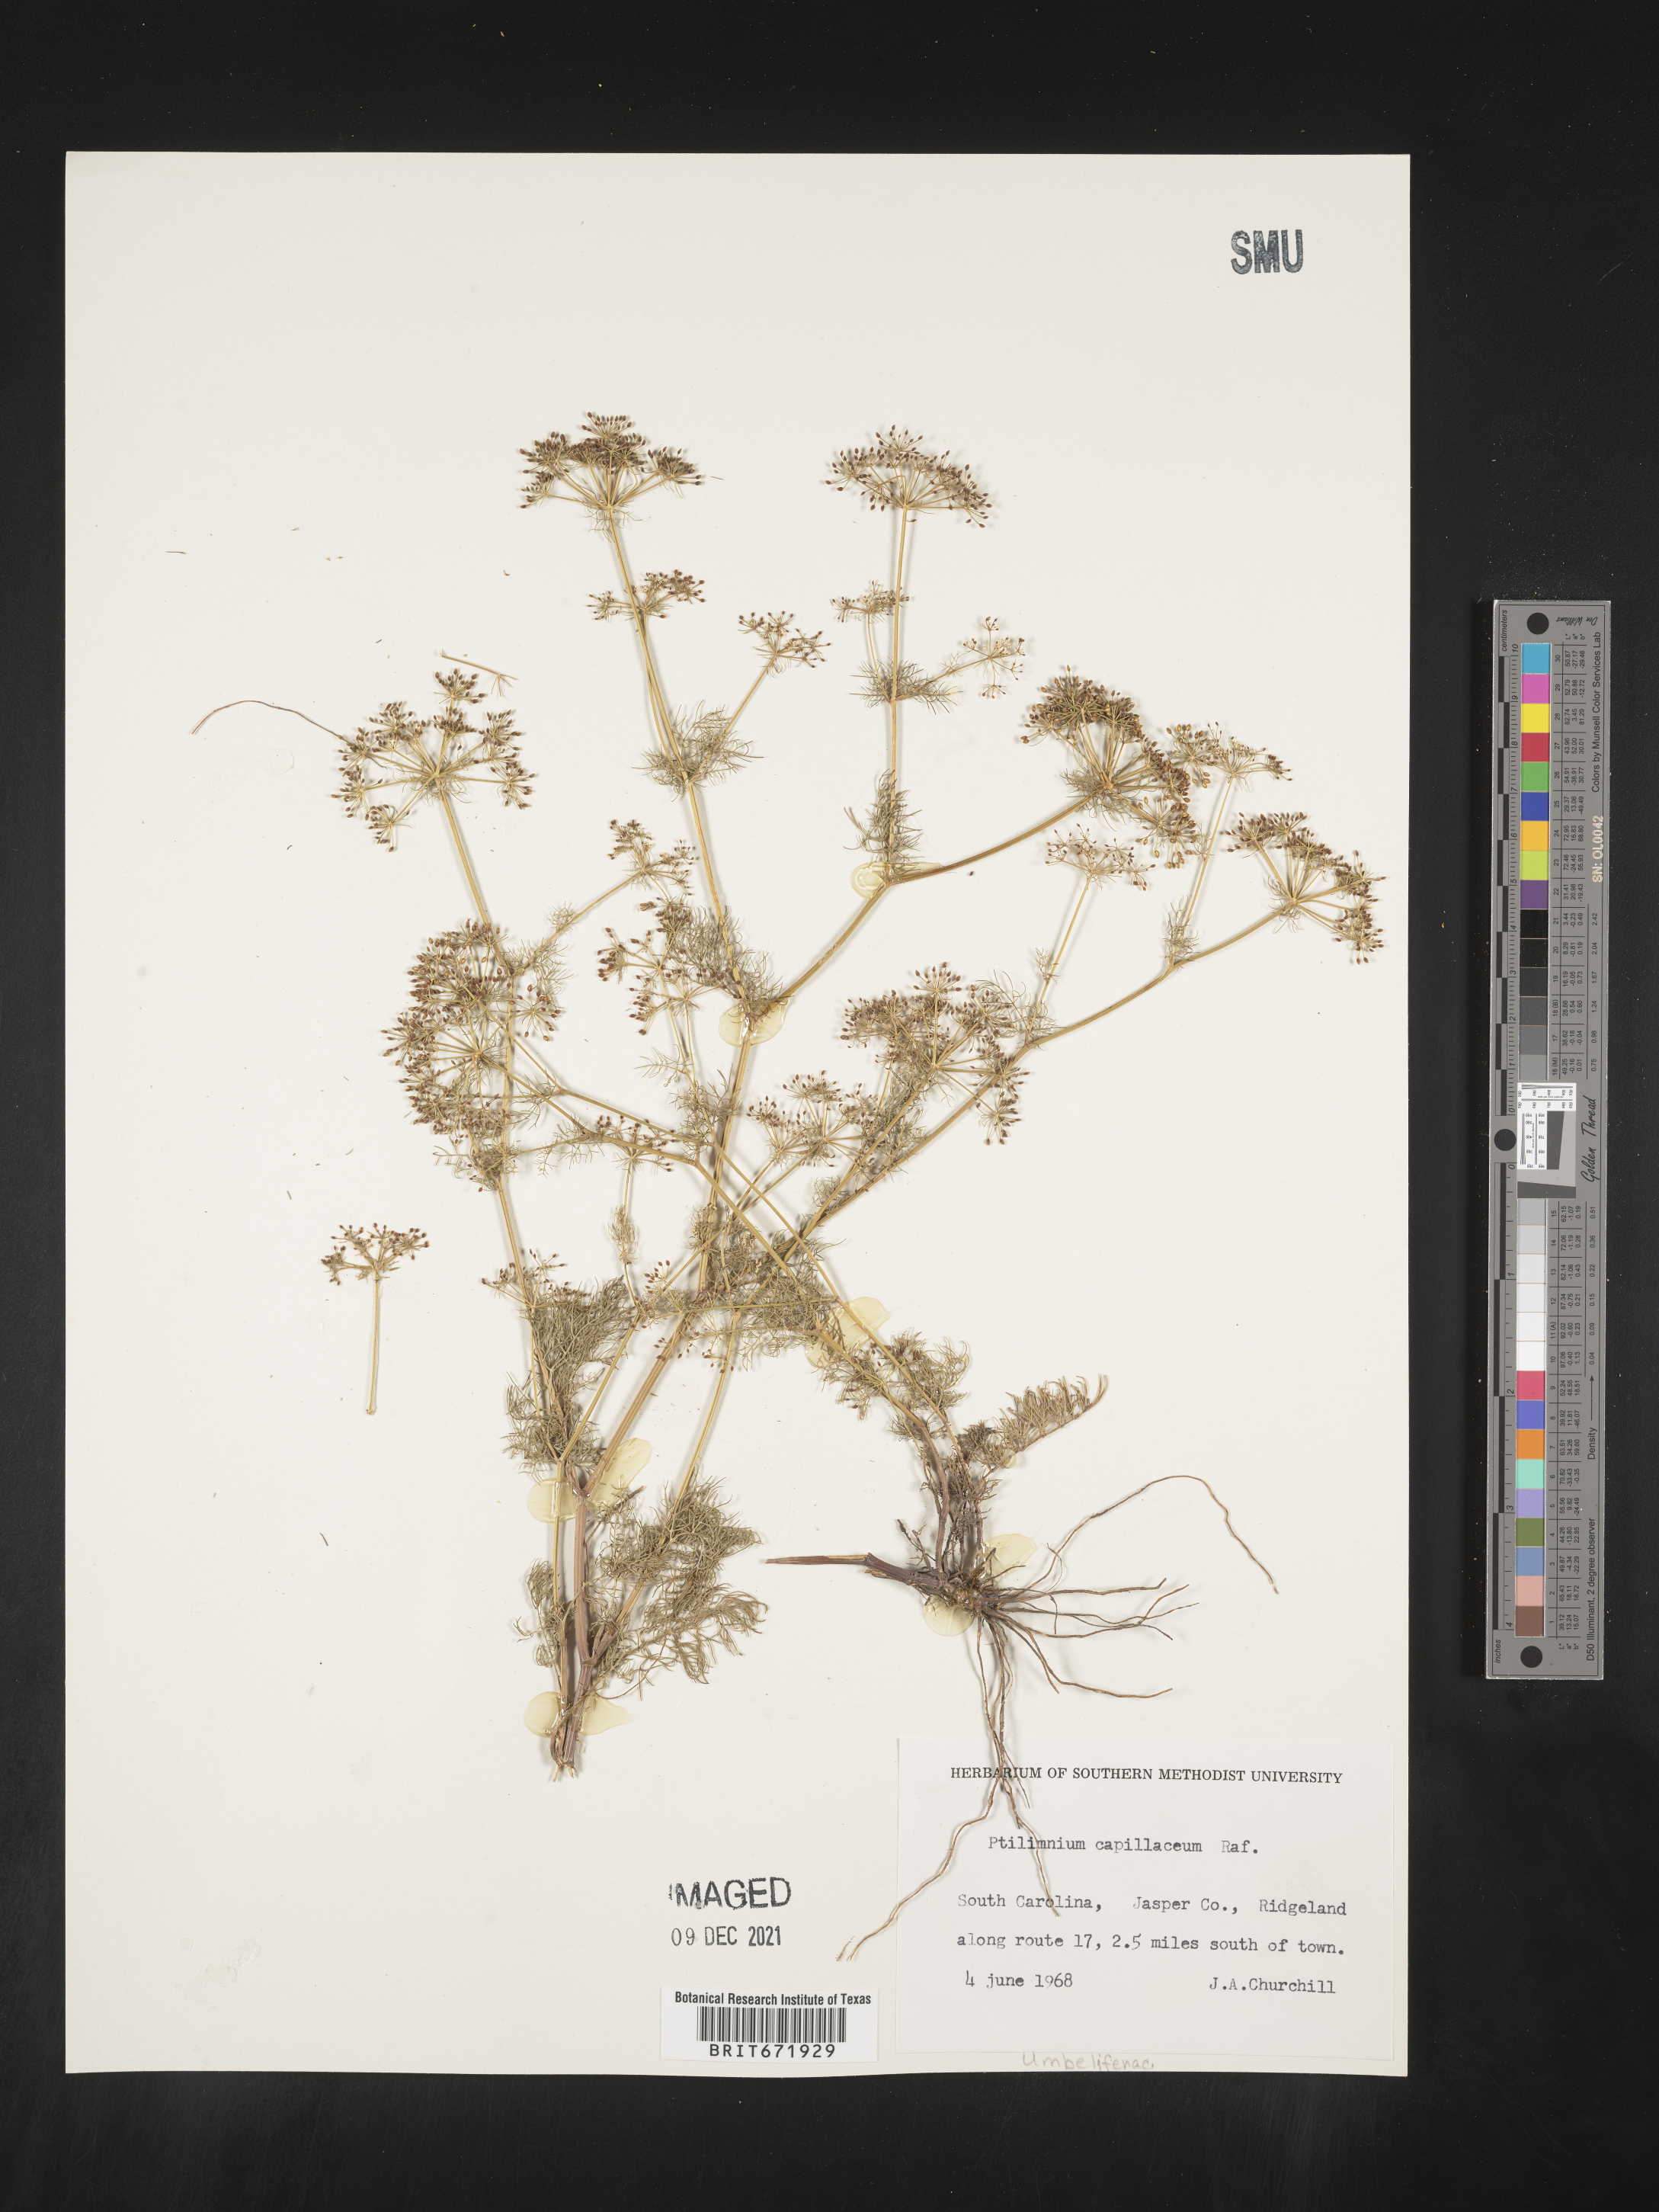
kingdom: Plantae
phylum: Tracheophyta
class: Magnoliopsida
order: Apiales
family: Apiaceae
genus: Ptilimnium
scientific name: Ptilimnium capillaceum
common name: Herbwilliam
